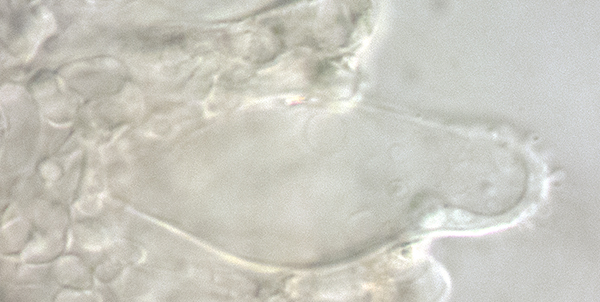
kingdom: Fungi
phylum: Basidiomycota
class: Agaricomycetes
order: Agaricales
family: Mycenaceae
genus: Mycena
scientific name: Mycena silvae-pristinae
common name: naturskovs-huesvamp
